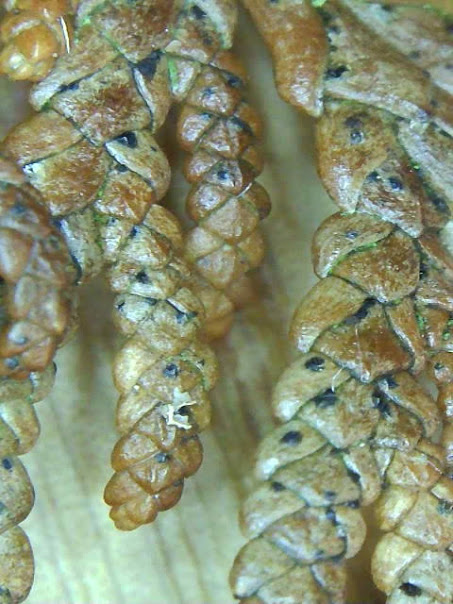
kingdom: Fungi
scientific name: Fungi
